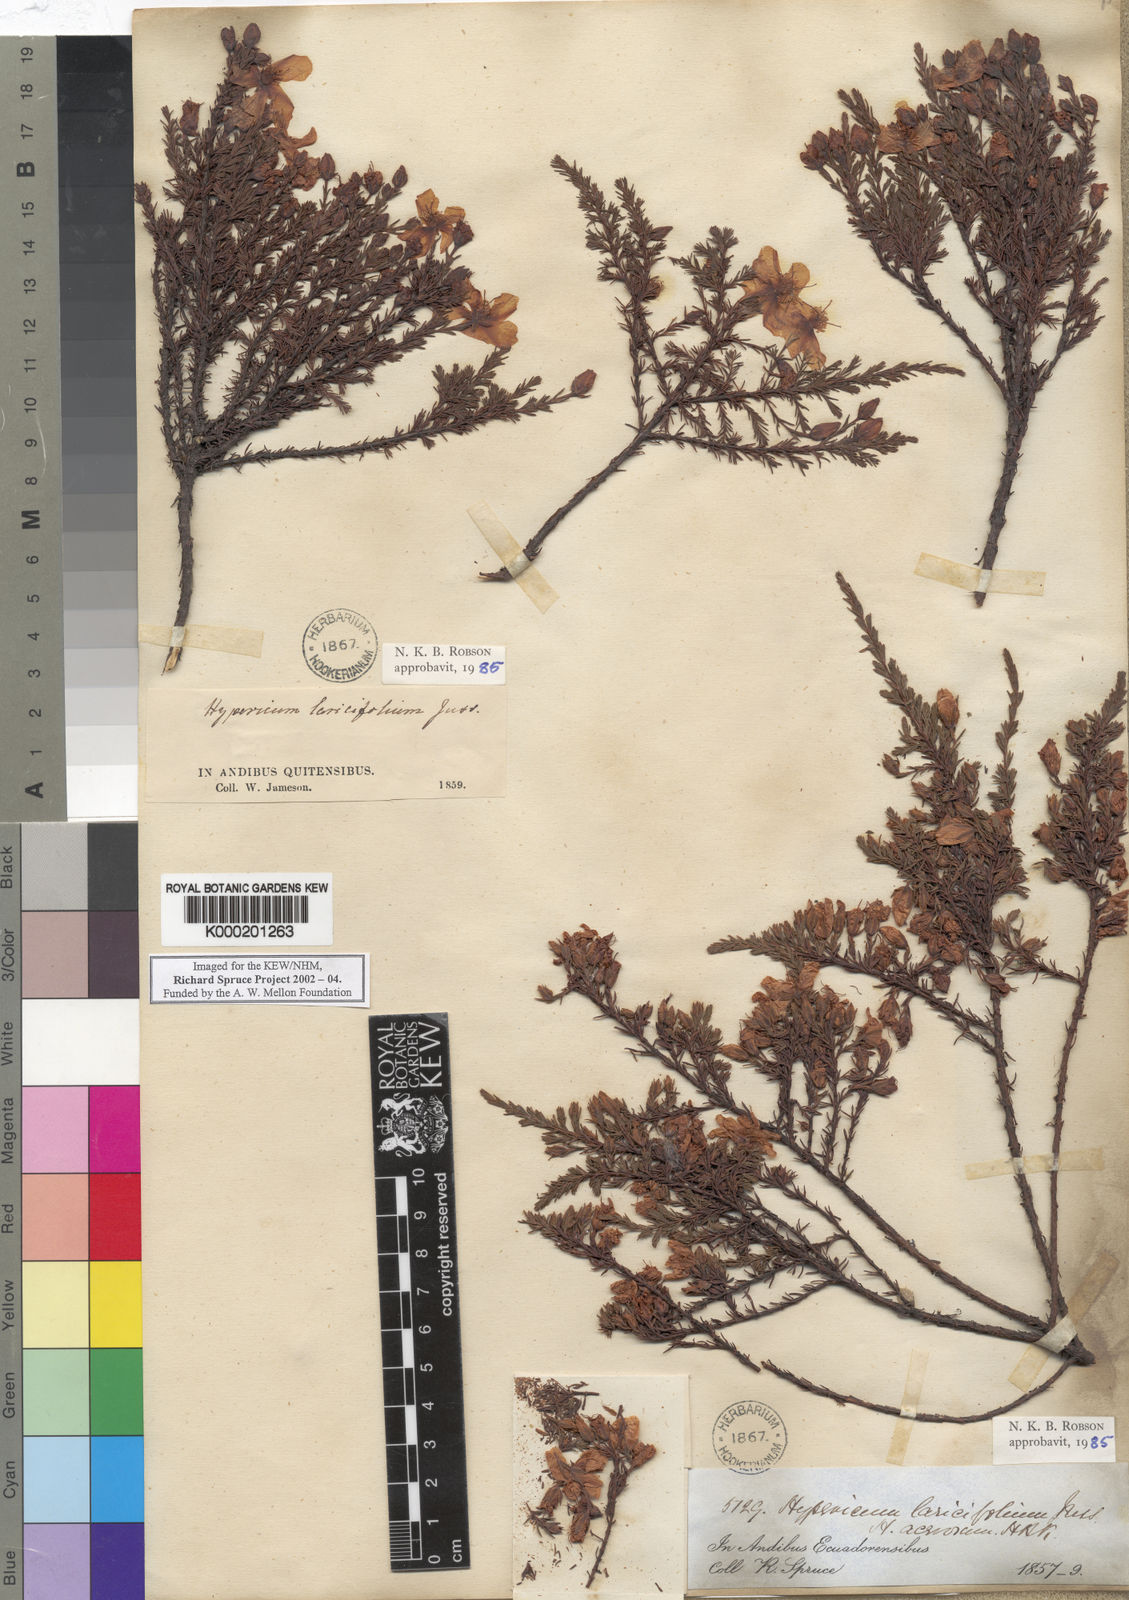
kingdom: Plantae
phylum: Tracheophyta
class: Magnoliopsida
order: Malpighiales
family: Hypericaceae
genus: Hypericum
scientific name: Hypericum lancifolium
